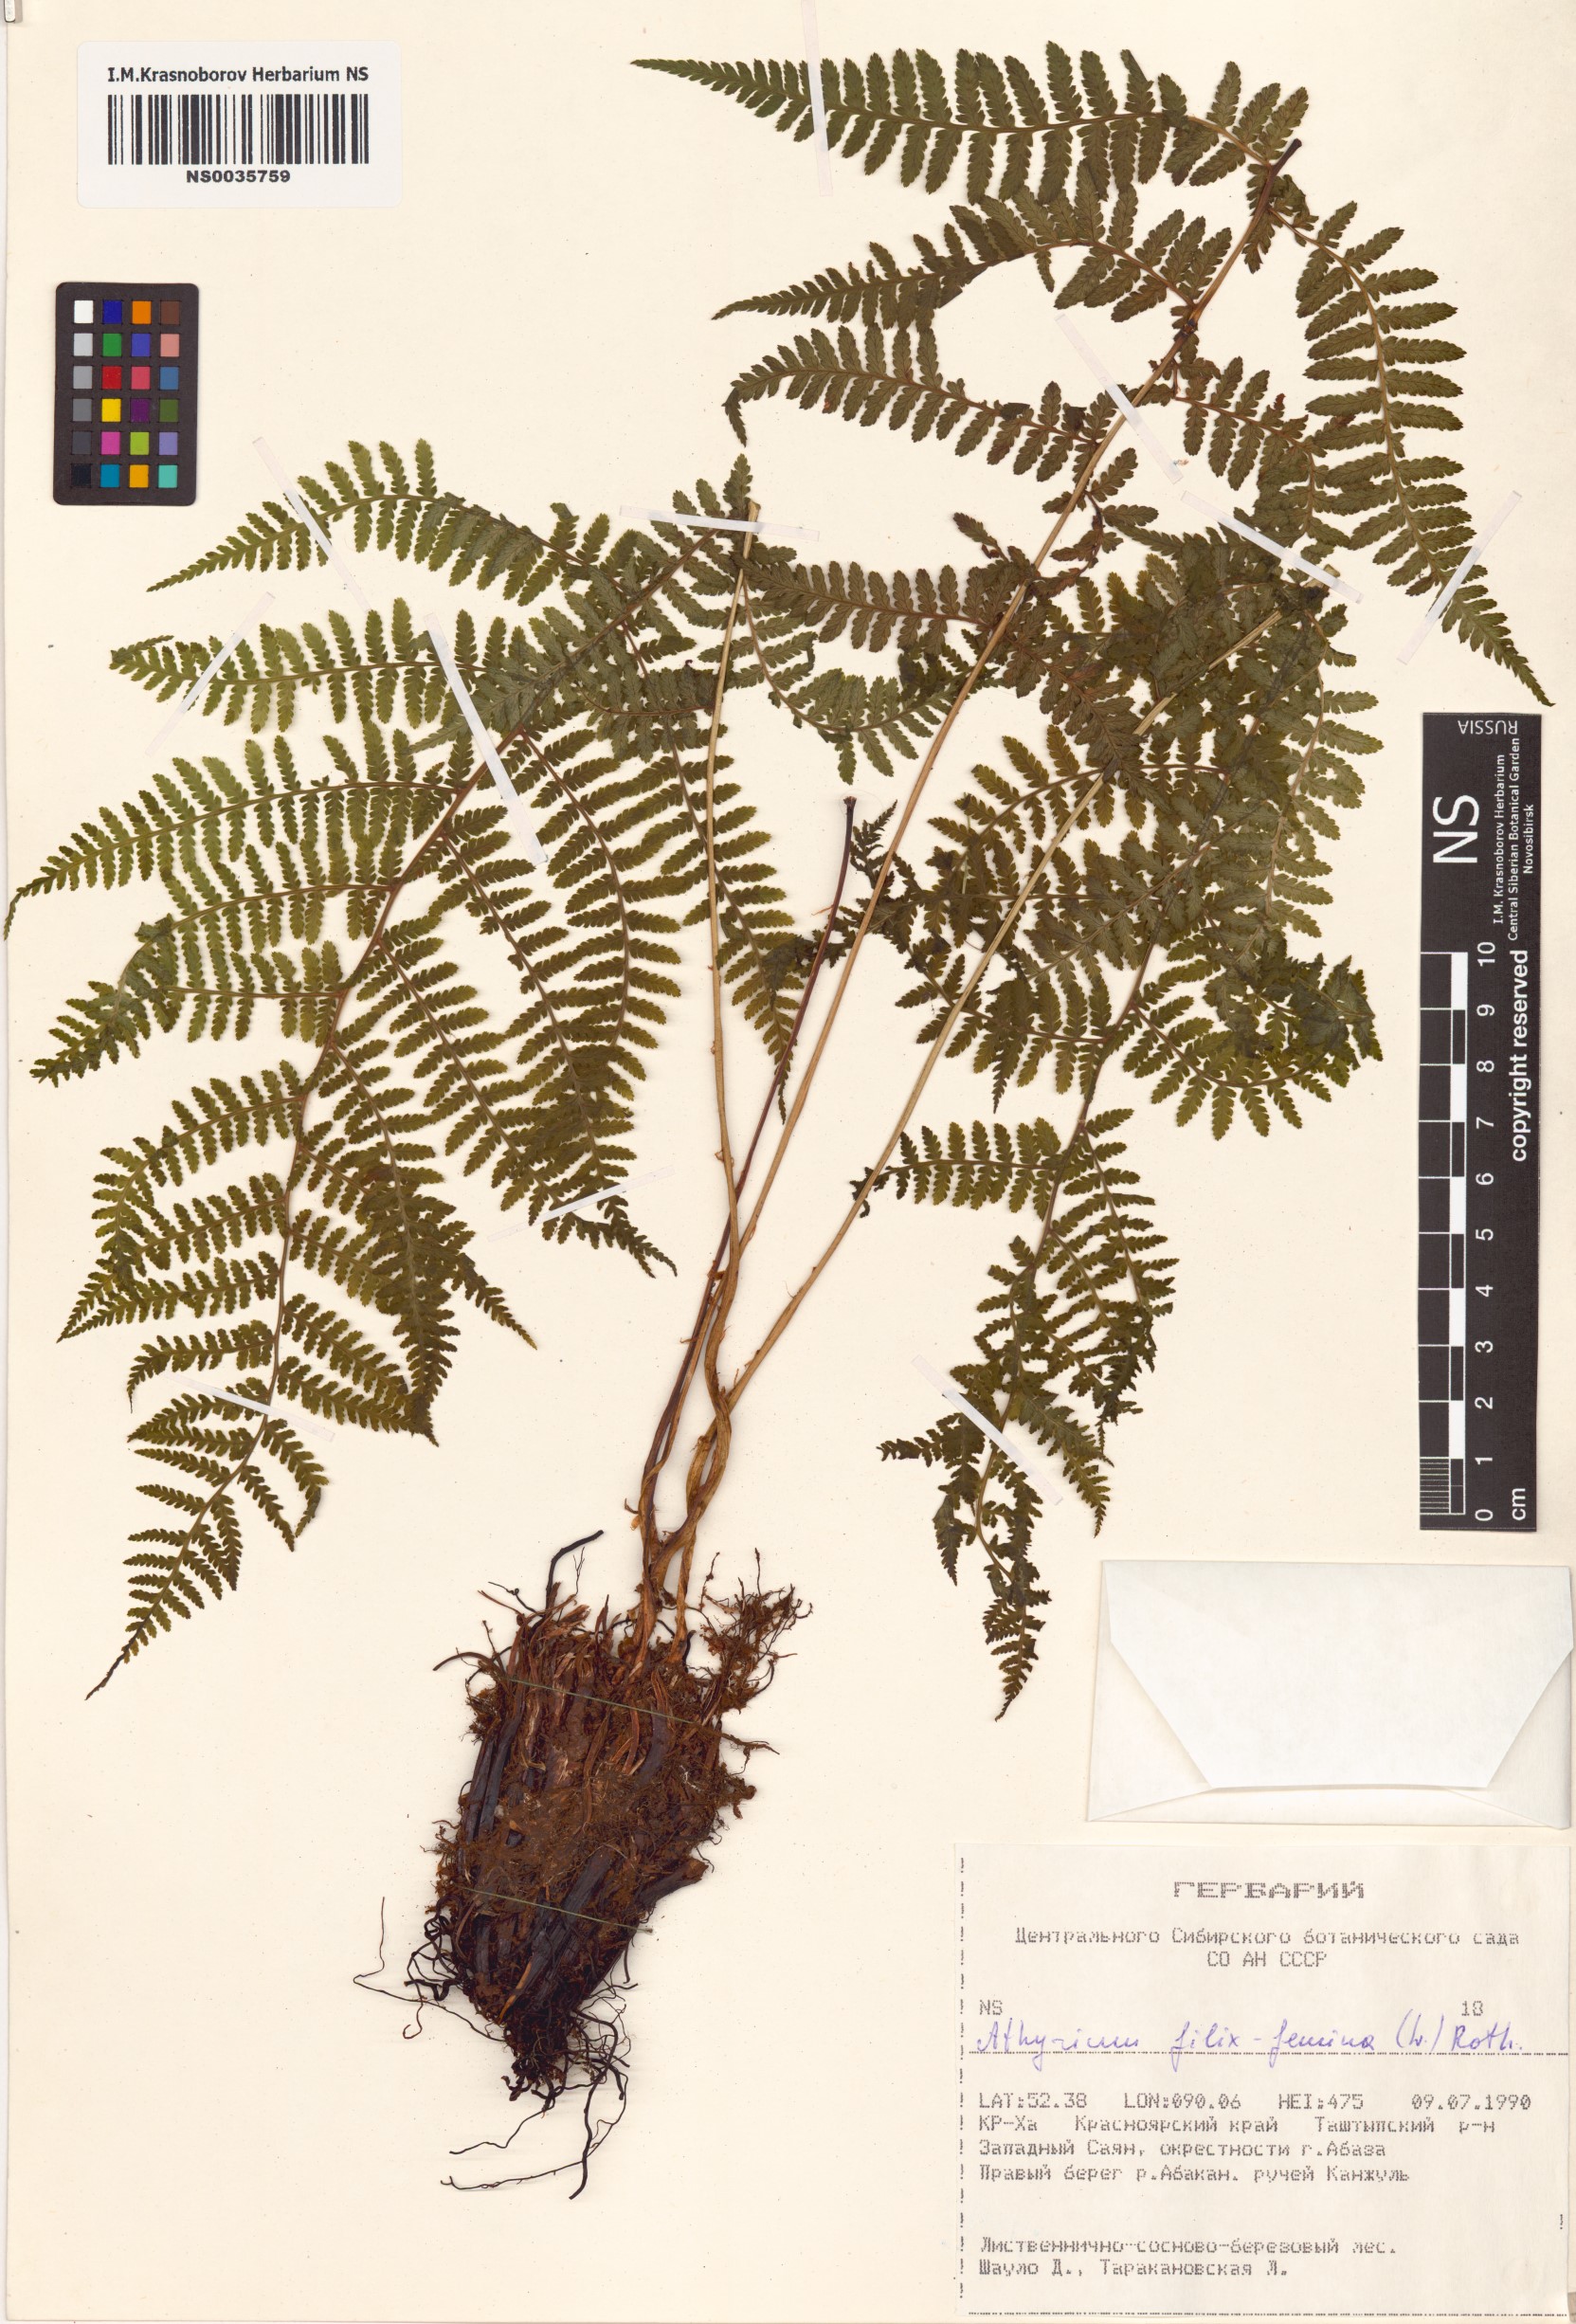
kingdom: Plantae
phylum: Tracheophyta
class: Polypodiopsida
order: Polypodiales
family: Athyriaceae
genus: Athyrium
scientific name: Athyrium filix-femina
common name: Lady fern
